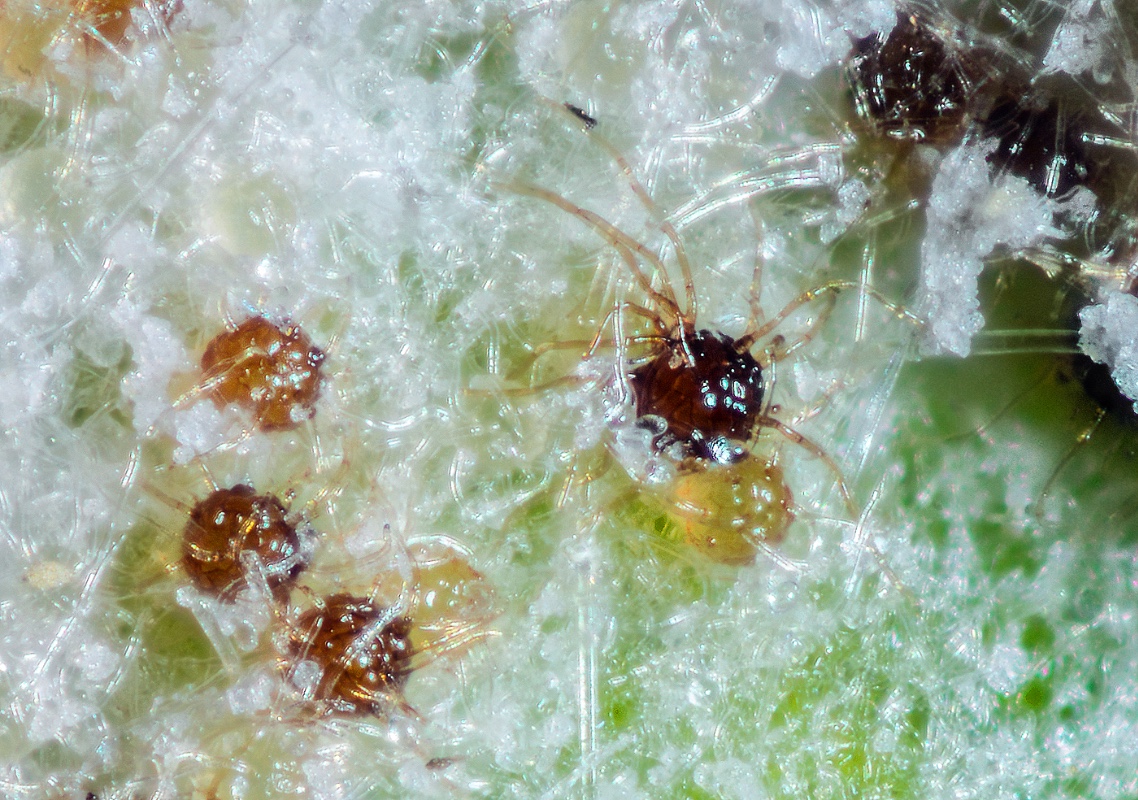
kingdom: Fungi
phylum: Ascomycota
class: Leotiomycetes
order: Helotiales
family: Erysiphaceae
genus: Podosphaera
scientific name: Podosphaera epilobii
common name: dueurt-meldug
